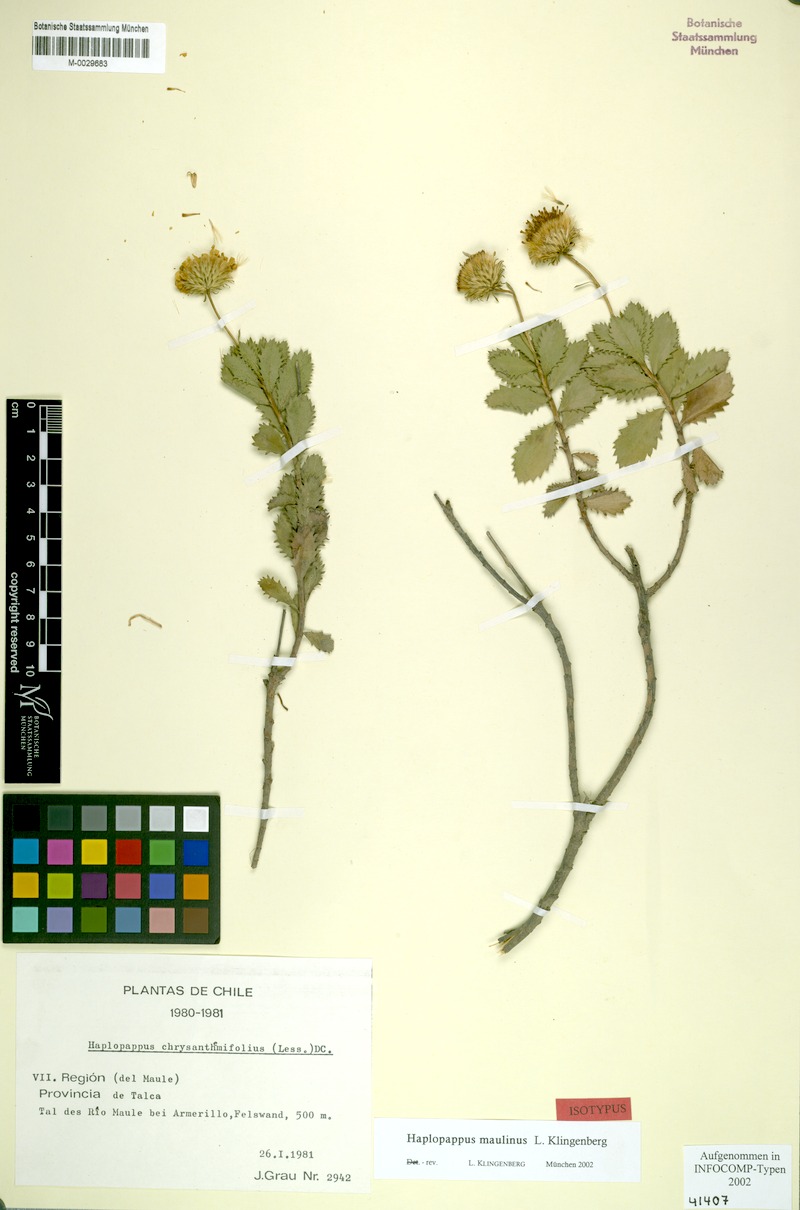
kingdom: Plantae
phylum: Tracheophyta
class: Magnoliopsida
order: Asterales
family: Asteraceae
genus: Haplopappus
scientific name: Haplopappus maulinus
